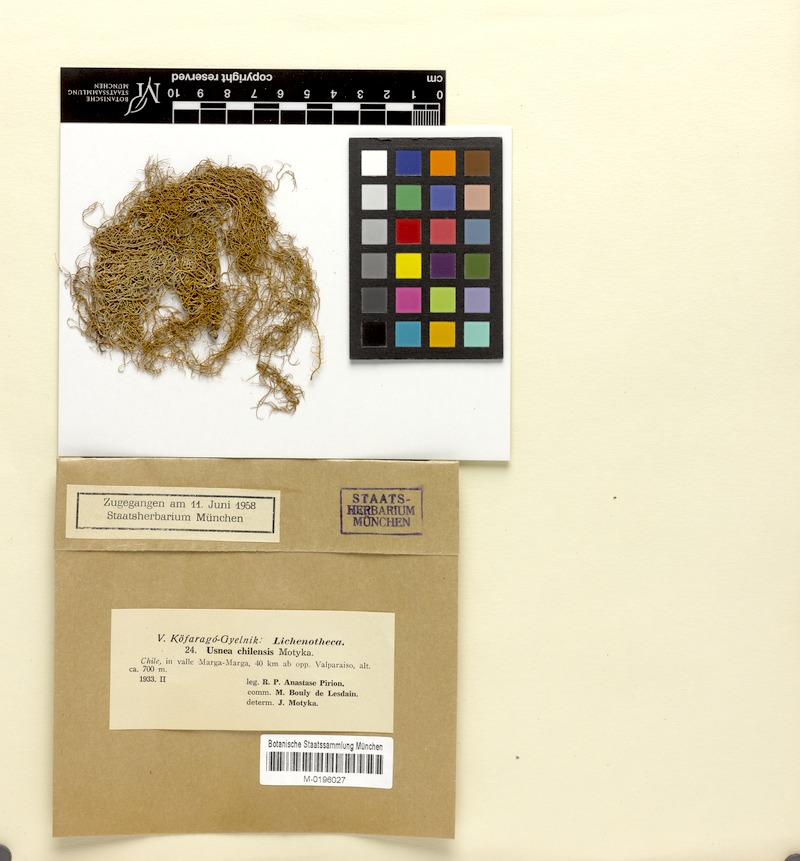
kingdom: Fungi
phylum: Ascomycota
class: Lecanoromycetes
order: Lecanorales
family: Parmeliaceae
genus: Usnea
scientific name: Usnea chilensis
